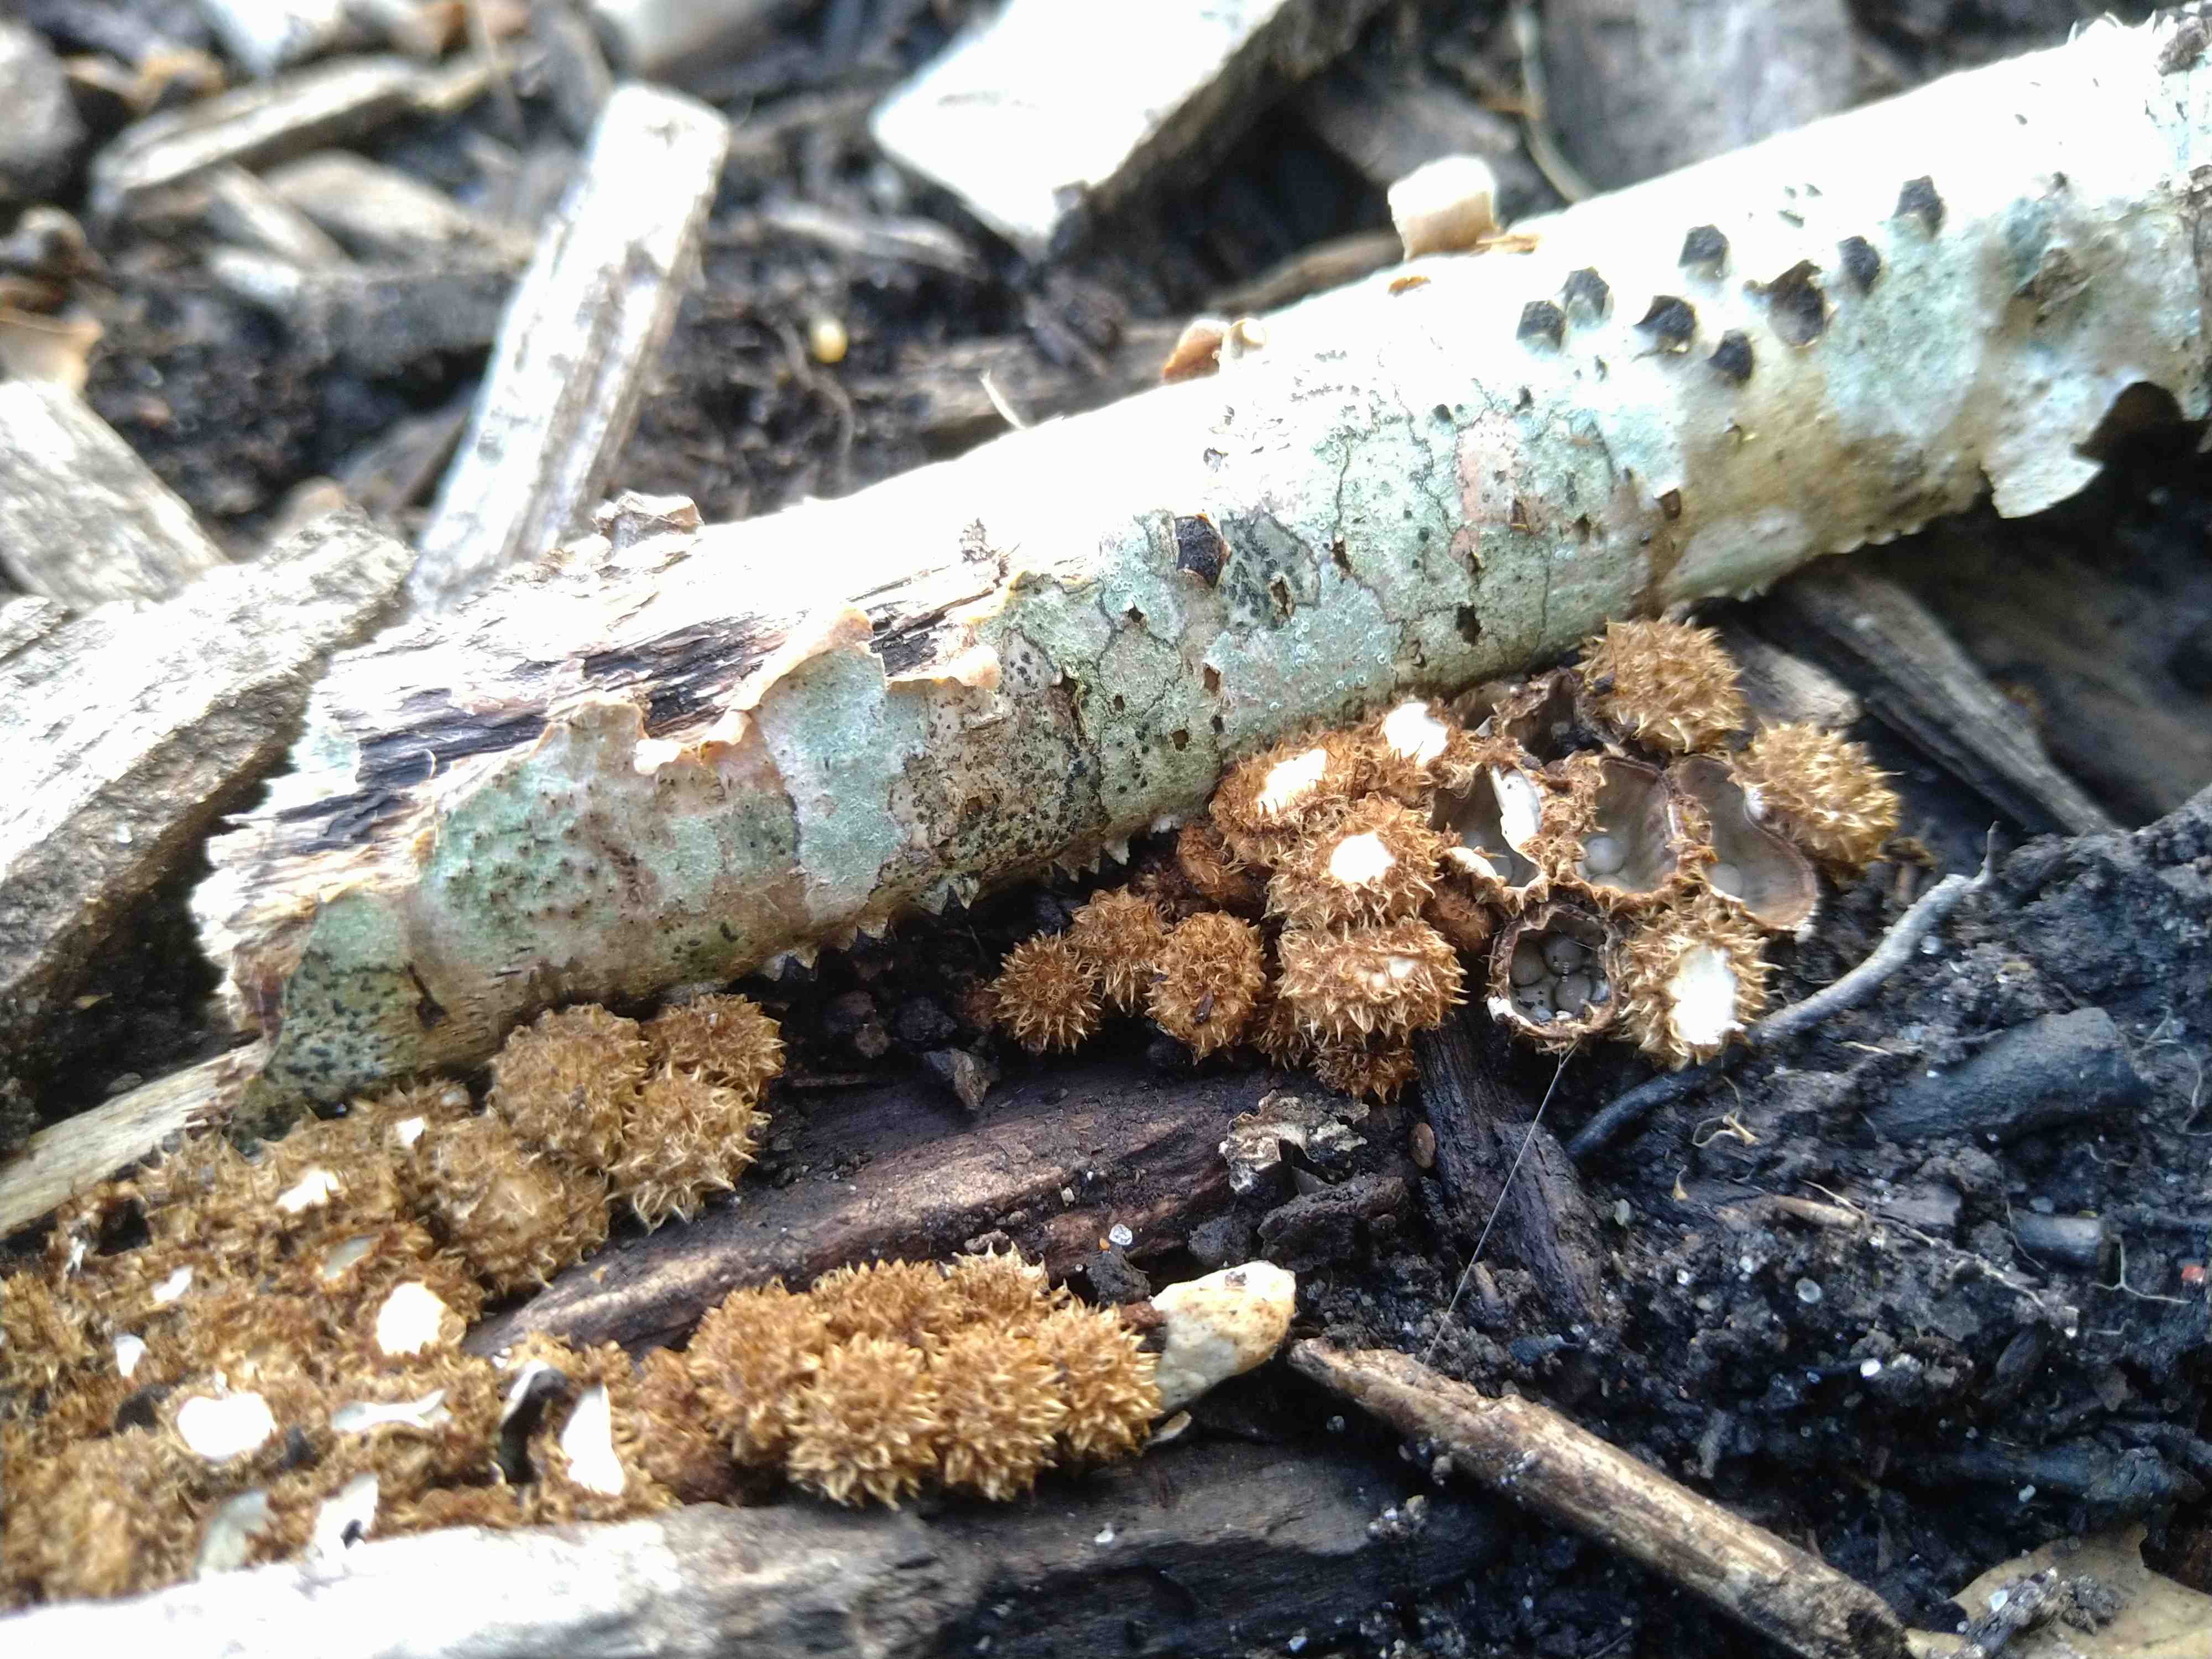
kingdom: Fungi
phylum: Basidiomycota
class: Agaricomycetes
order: Agaricales
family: Agaricaceae
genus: Cyathus
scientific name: Cyathus striatus
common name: stribet redesvamp
